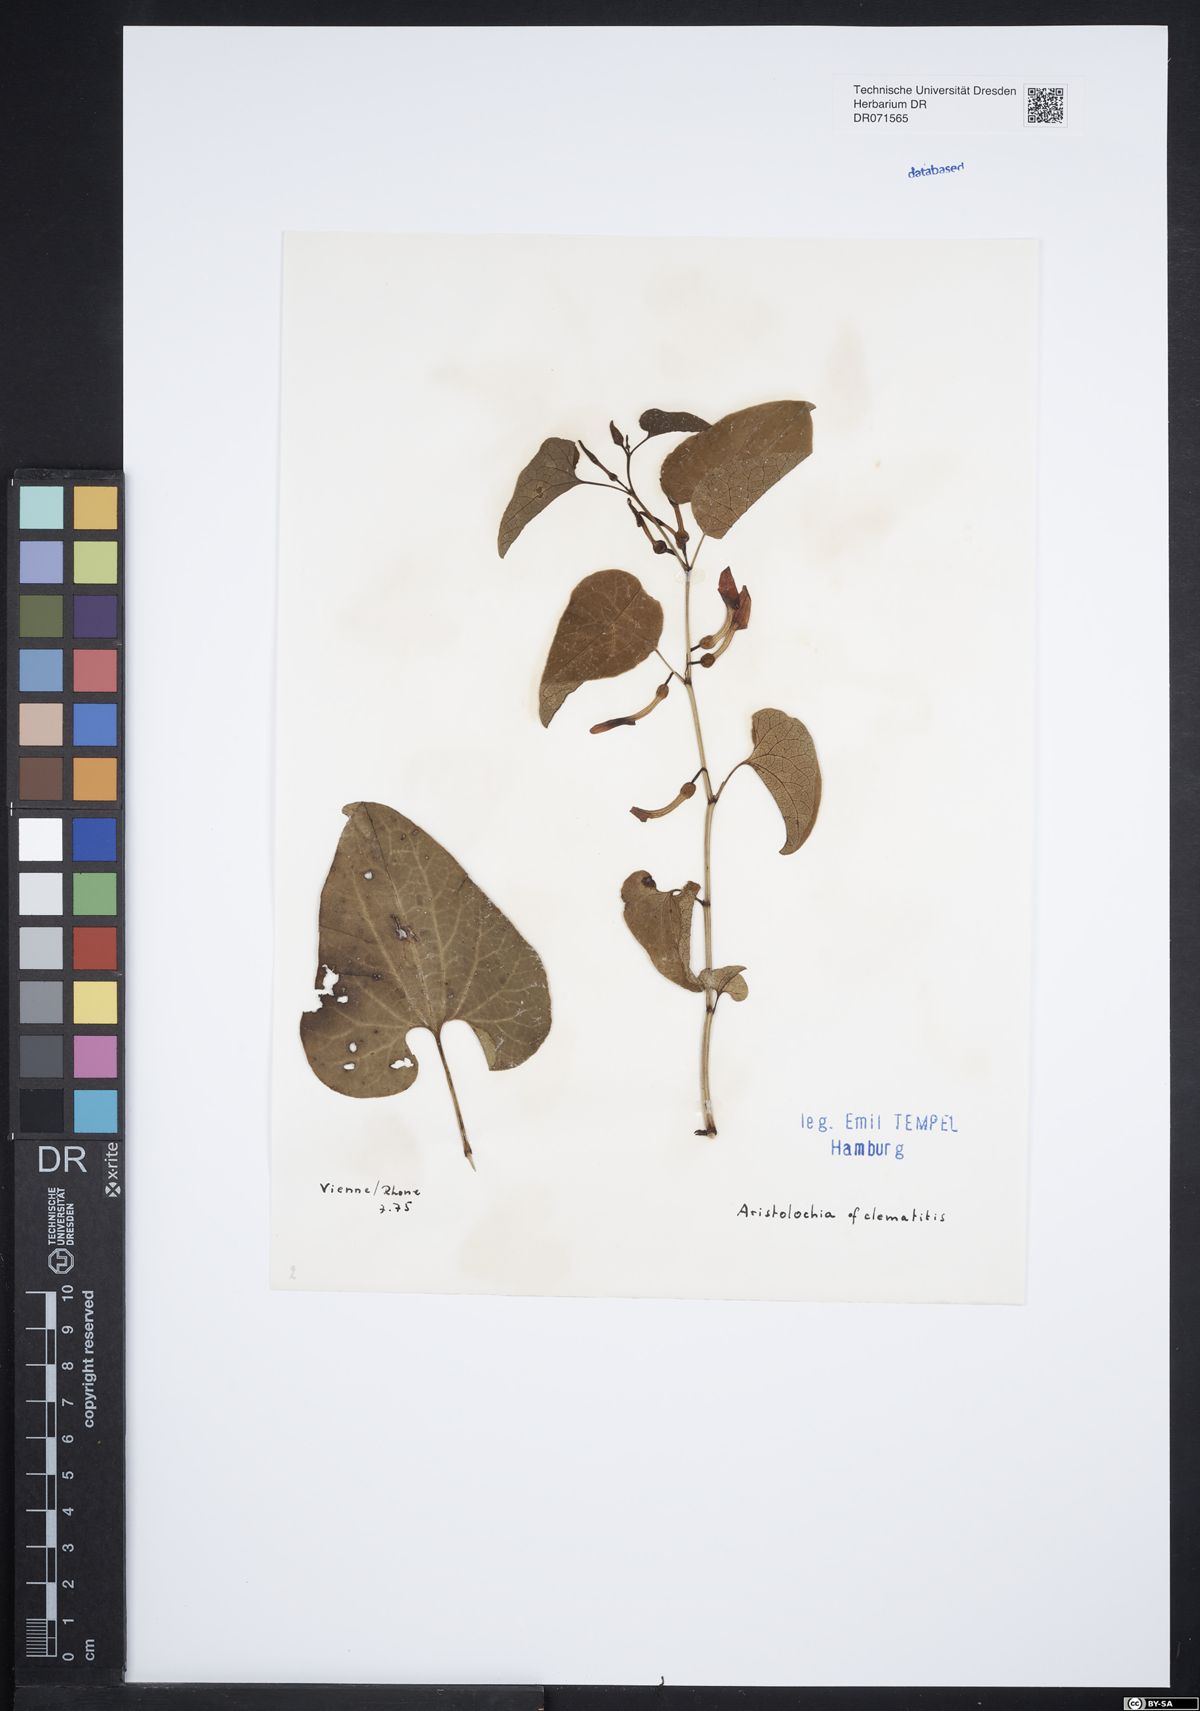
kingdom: Plantae
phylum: Tracheophyta
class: Magnoliopsida
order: Piperales
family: Aristolochiaceae
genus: Aristolochia
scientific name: Aristolochia clematitis
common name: Birthwort
